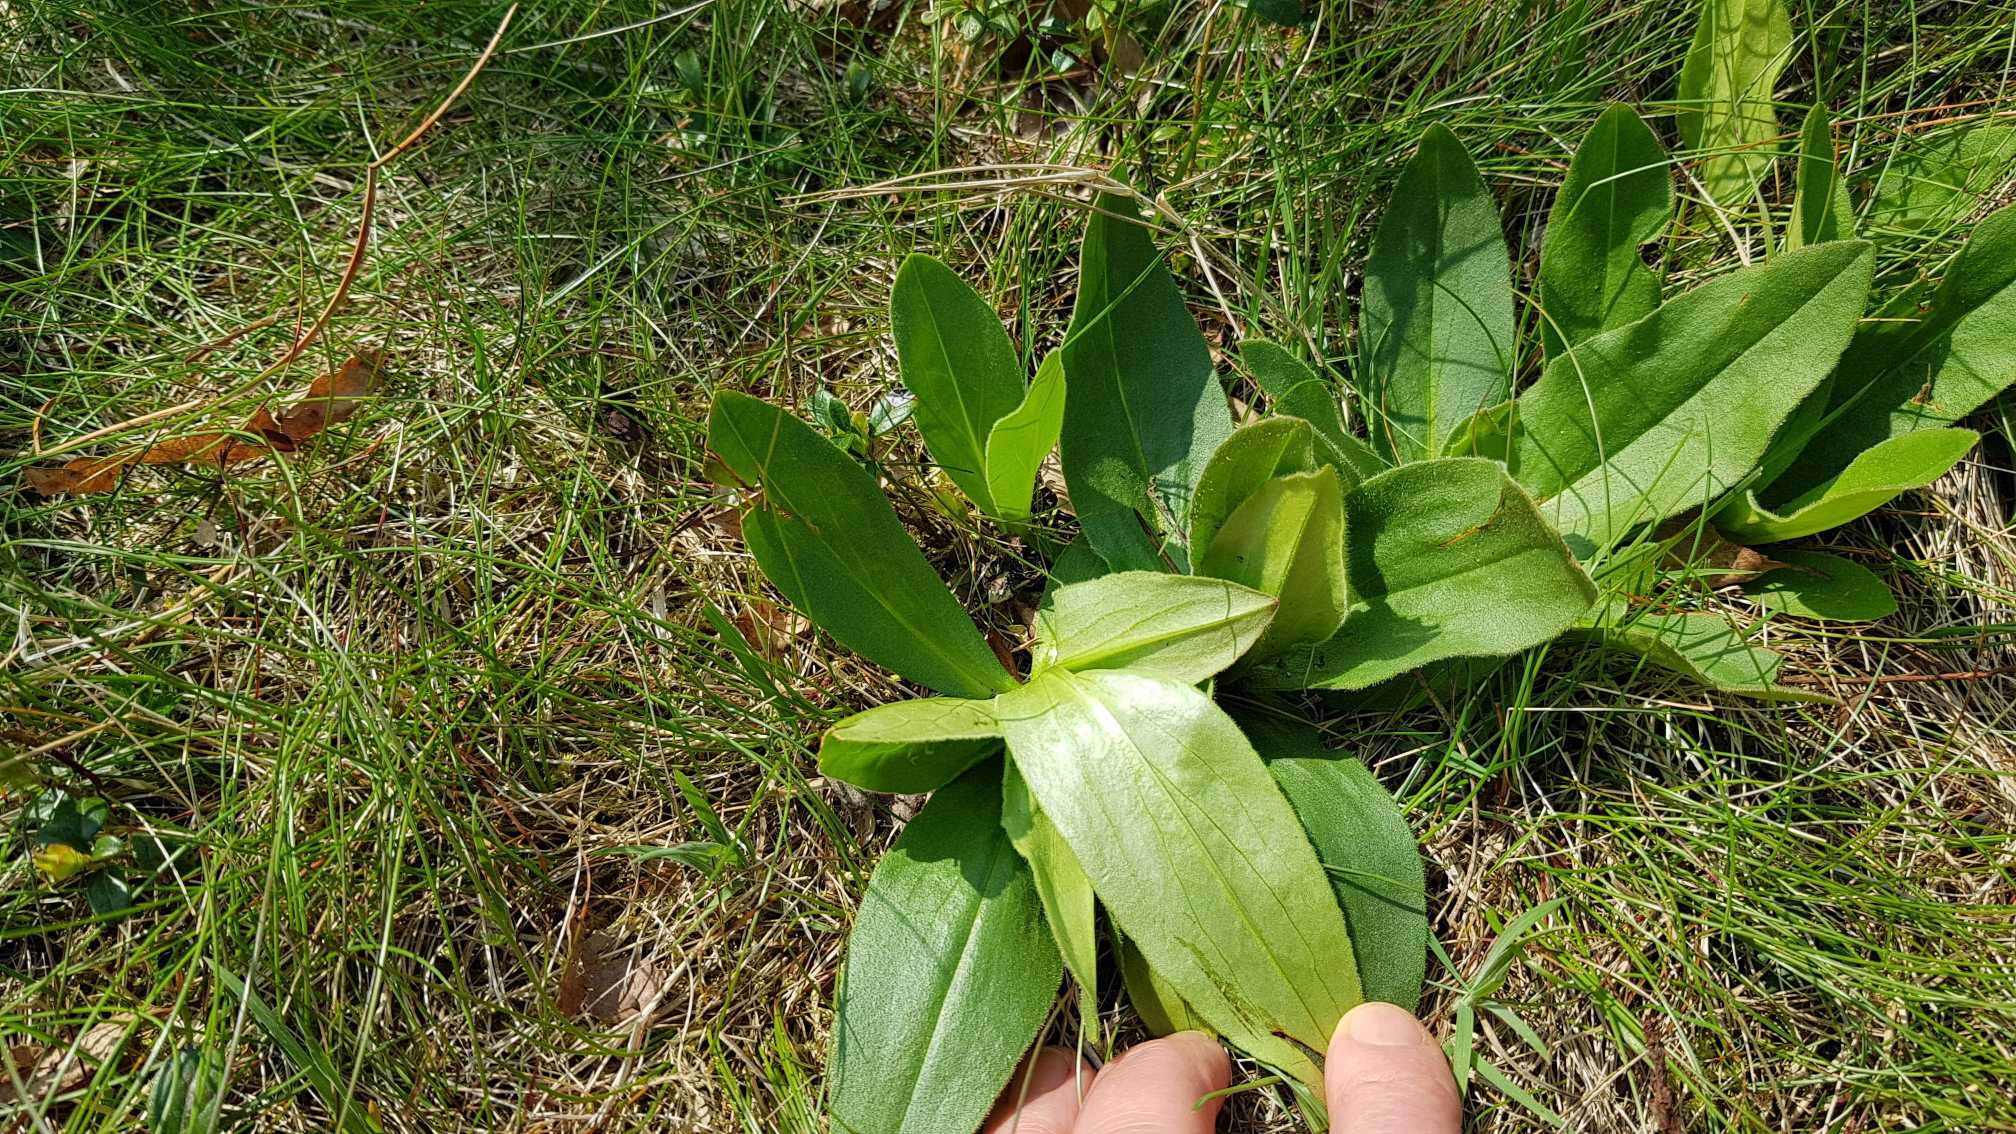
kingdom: Plantae
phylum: Tracheophyta
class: Magnoliopsida
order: Asterales
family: Asteraceae
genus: Arnica
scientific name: Arnica montana
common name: Guldblomme
